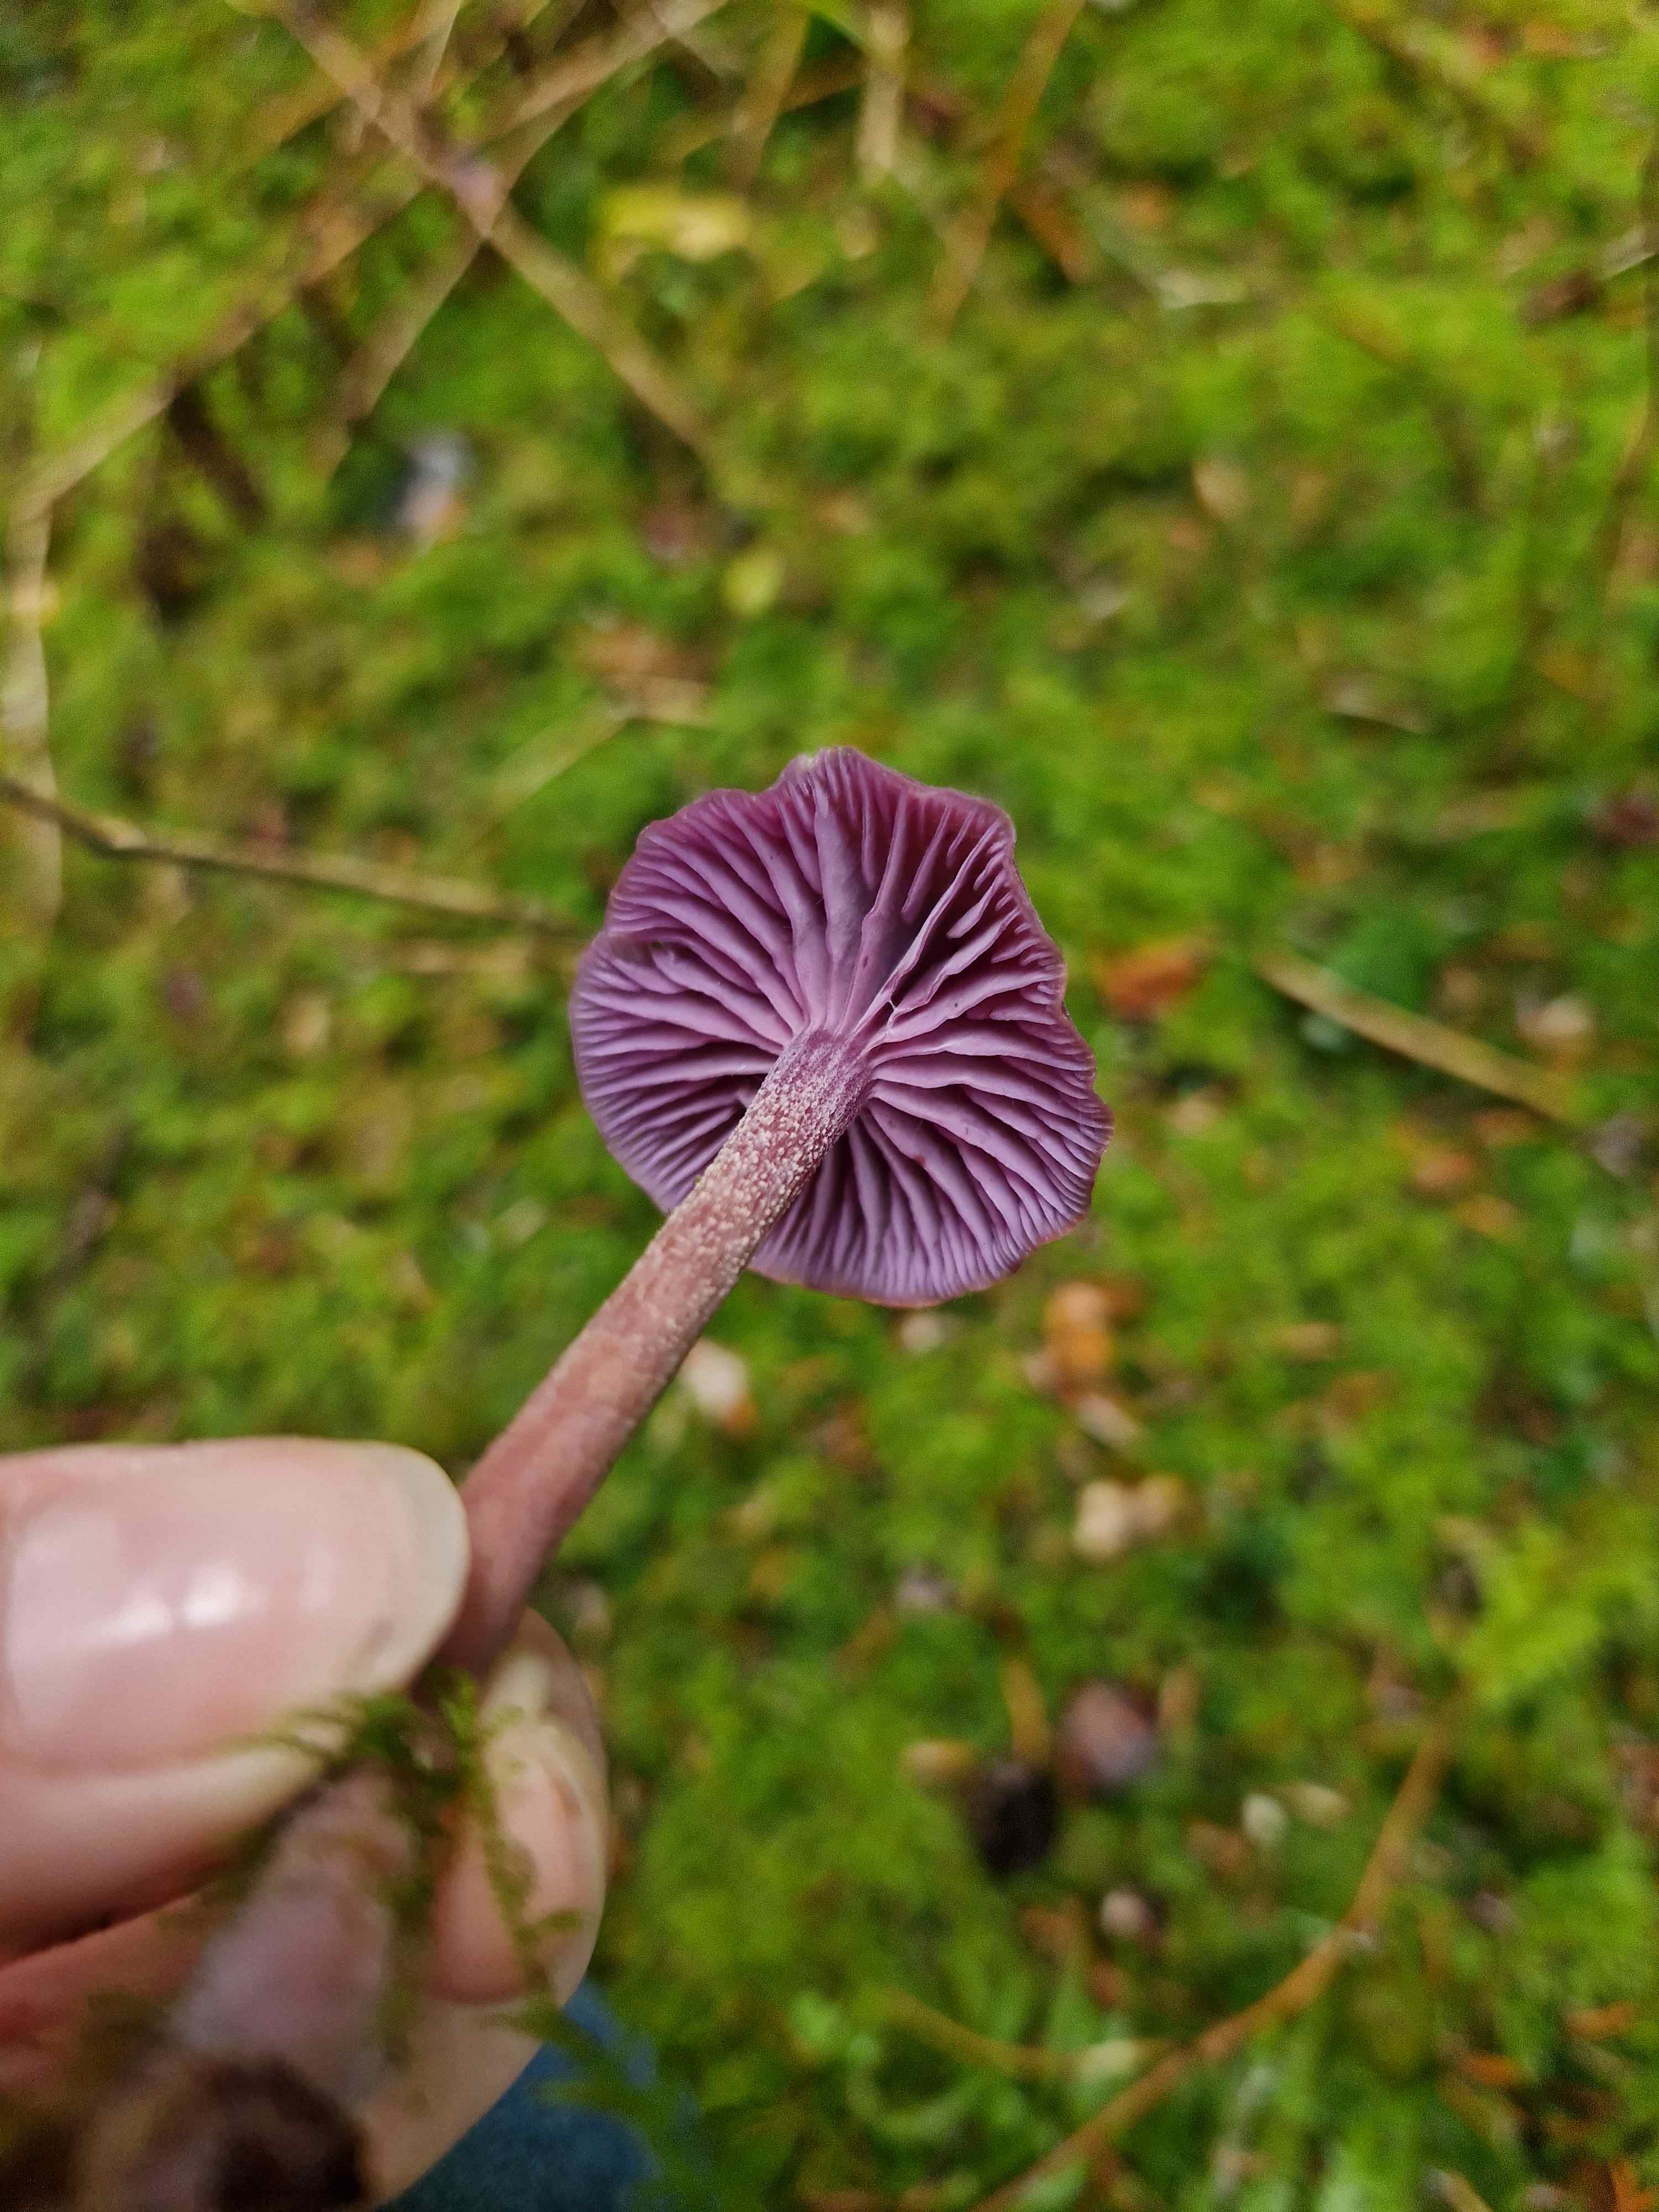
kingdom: Fungi
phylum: Basidiomycota
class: Agaricomycetes
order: Agaricales
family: Hydnangiaceae
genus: Laccaria
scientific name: Laccaria amethystina
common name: violet ametysthat
